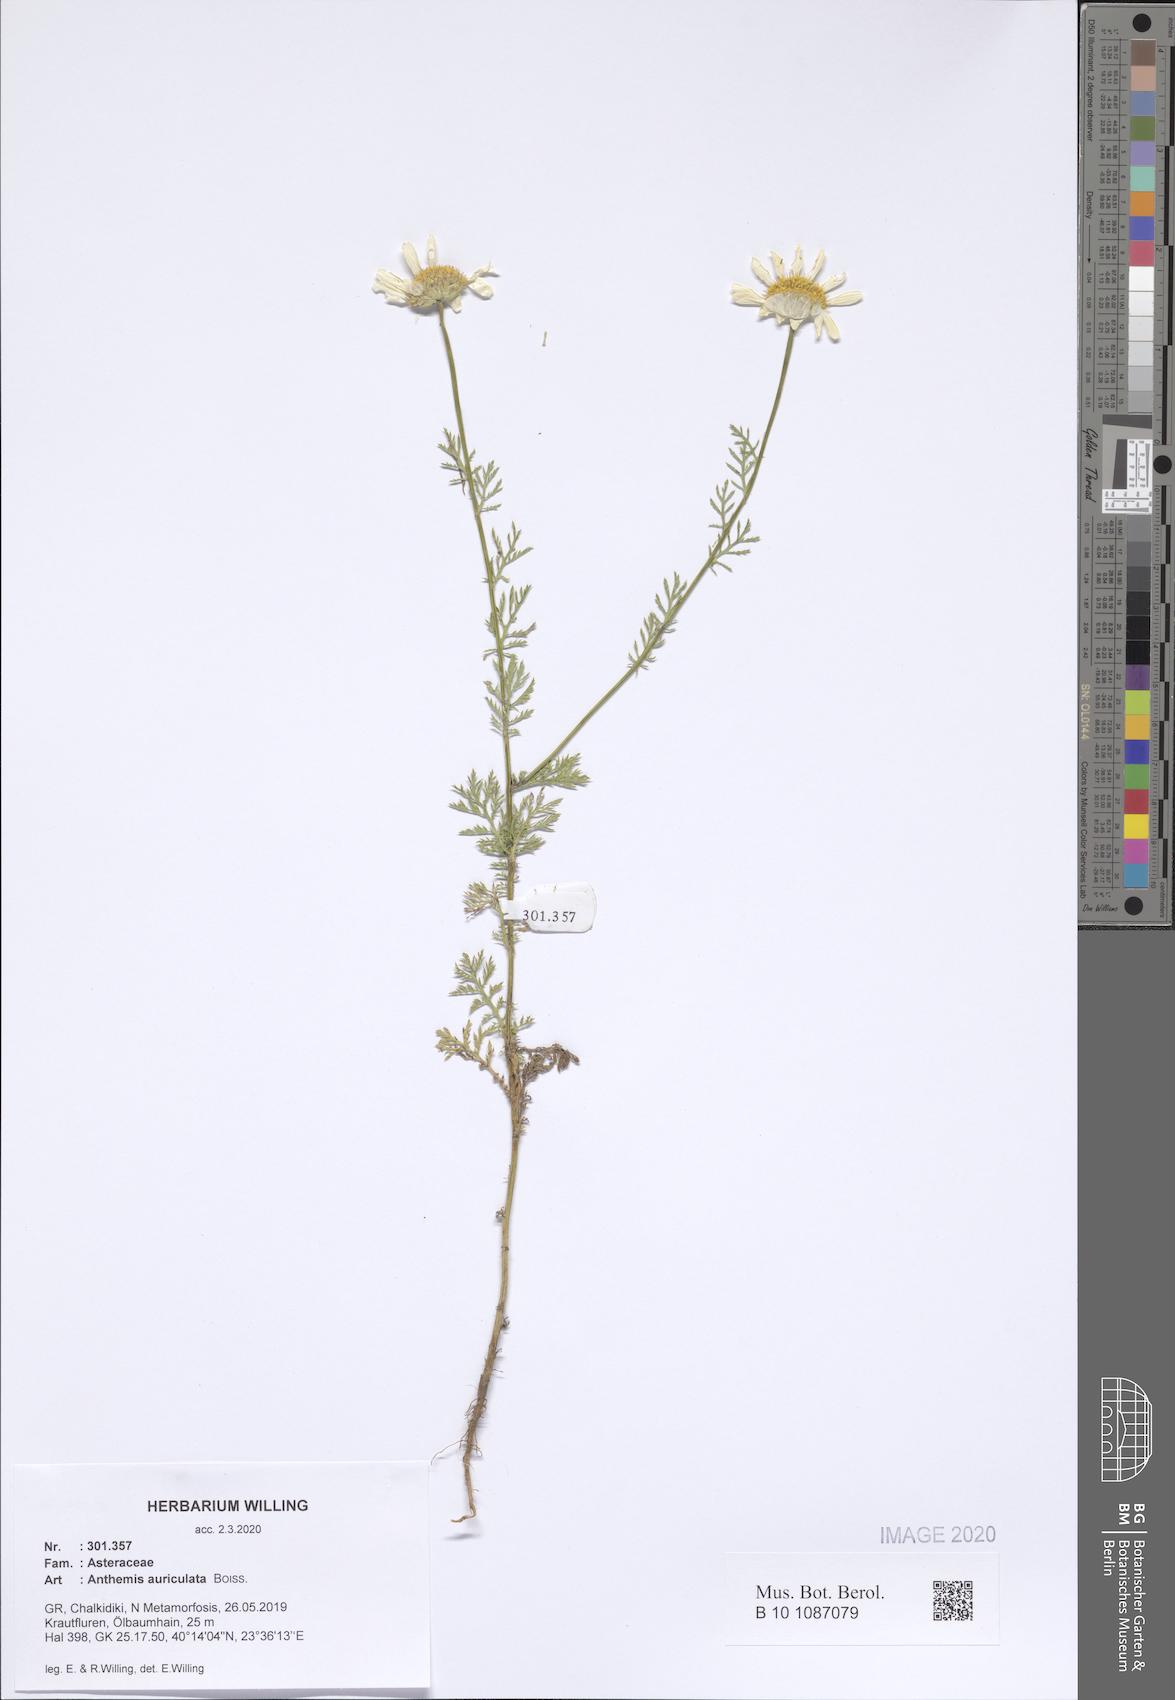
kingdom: Plantae
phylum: Tracheophyta
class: Magnoliopsida
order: Asterales
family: Asteraceae
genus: Anthemis
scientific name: Anthemis auriculata
